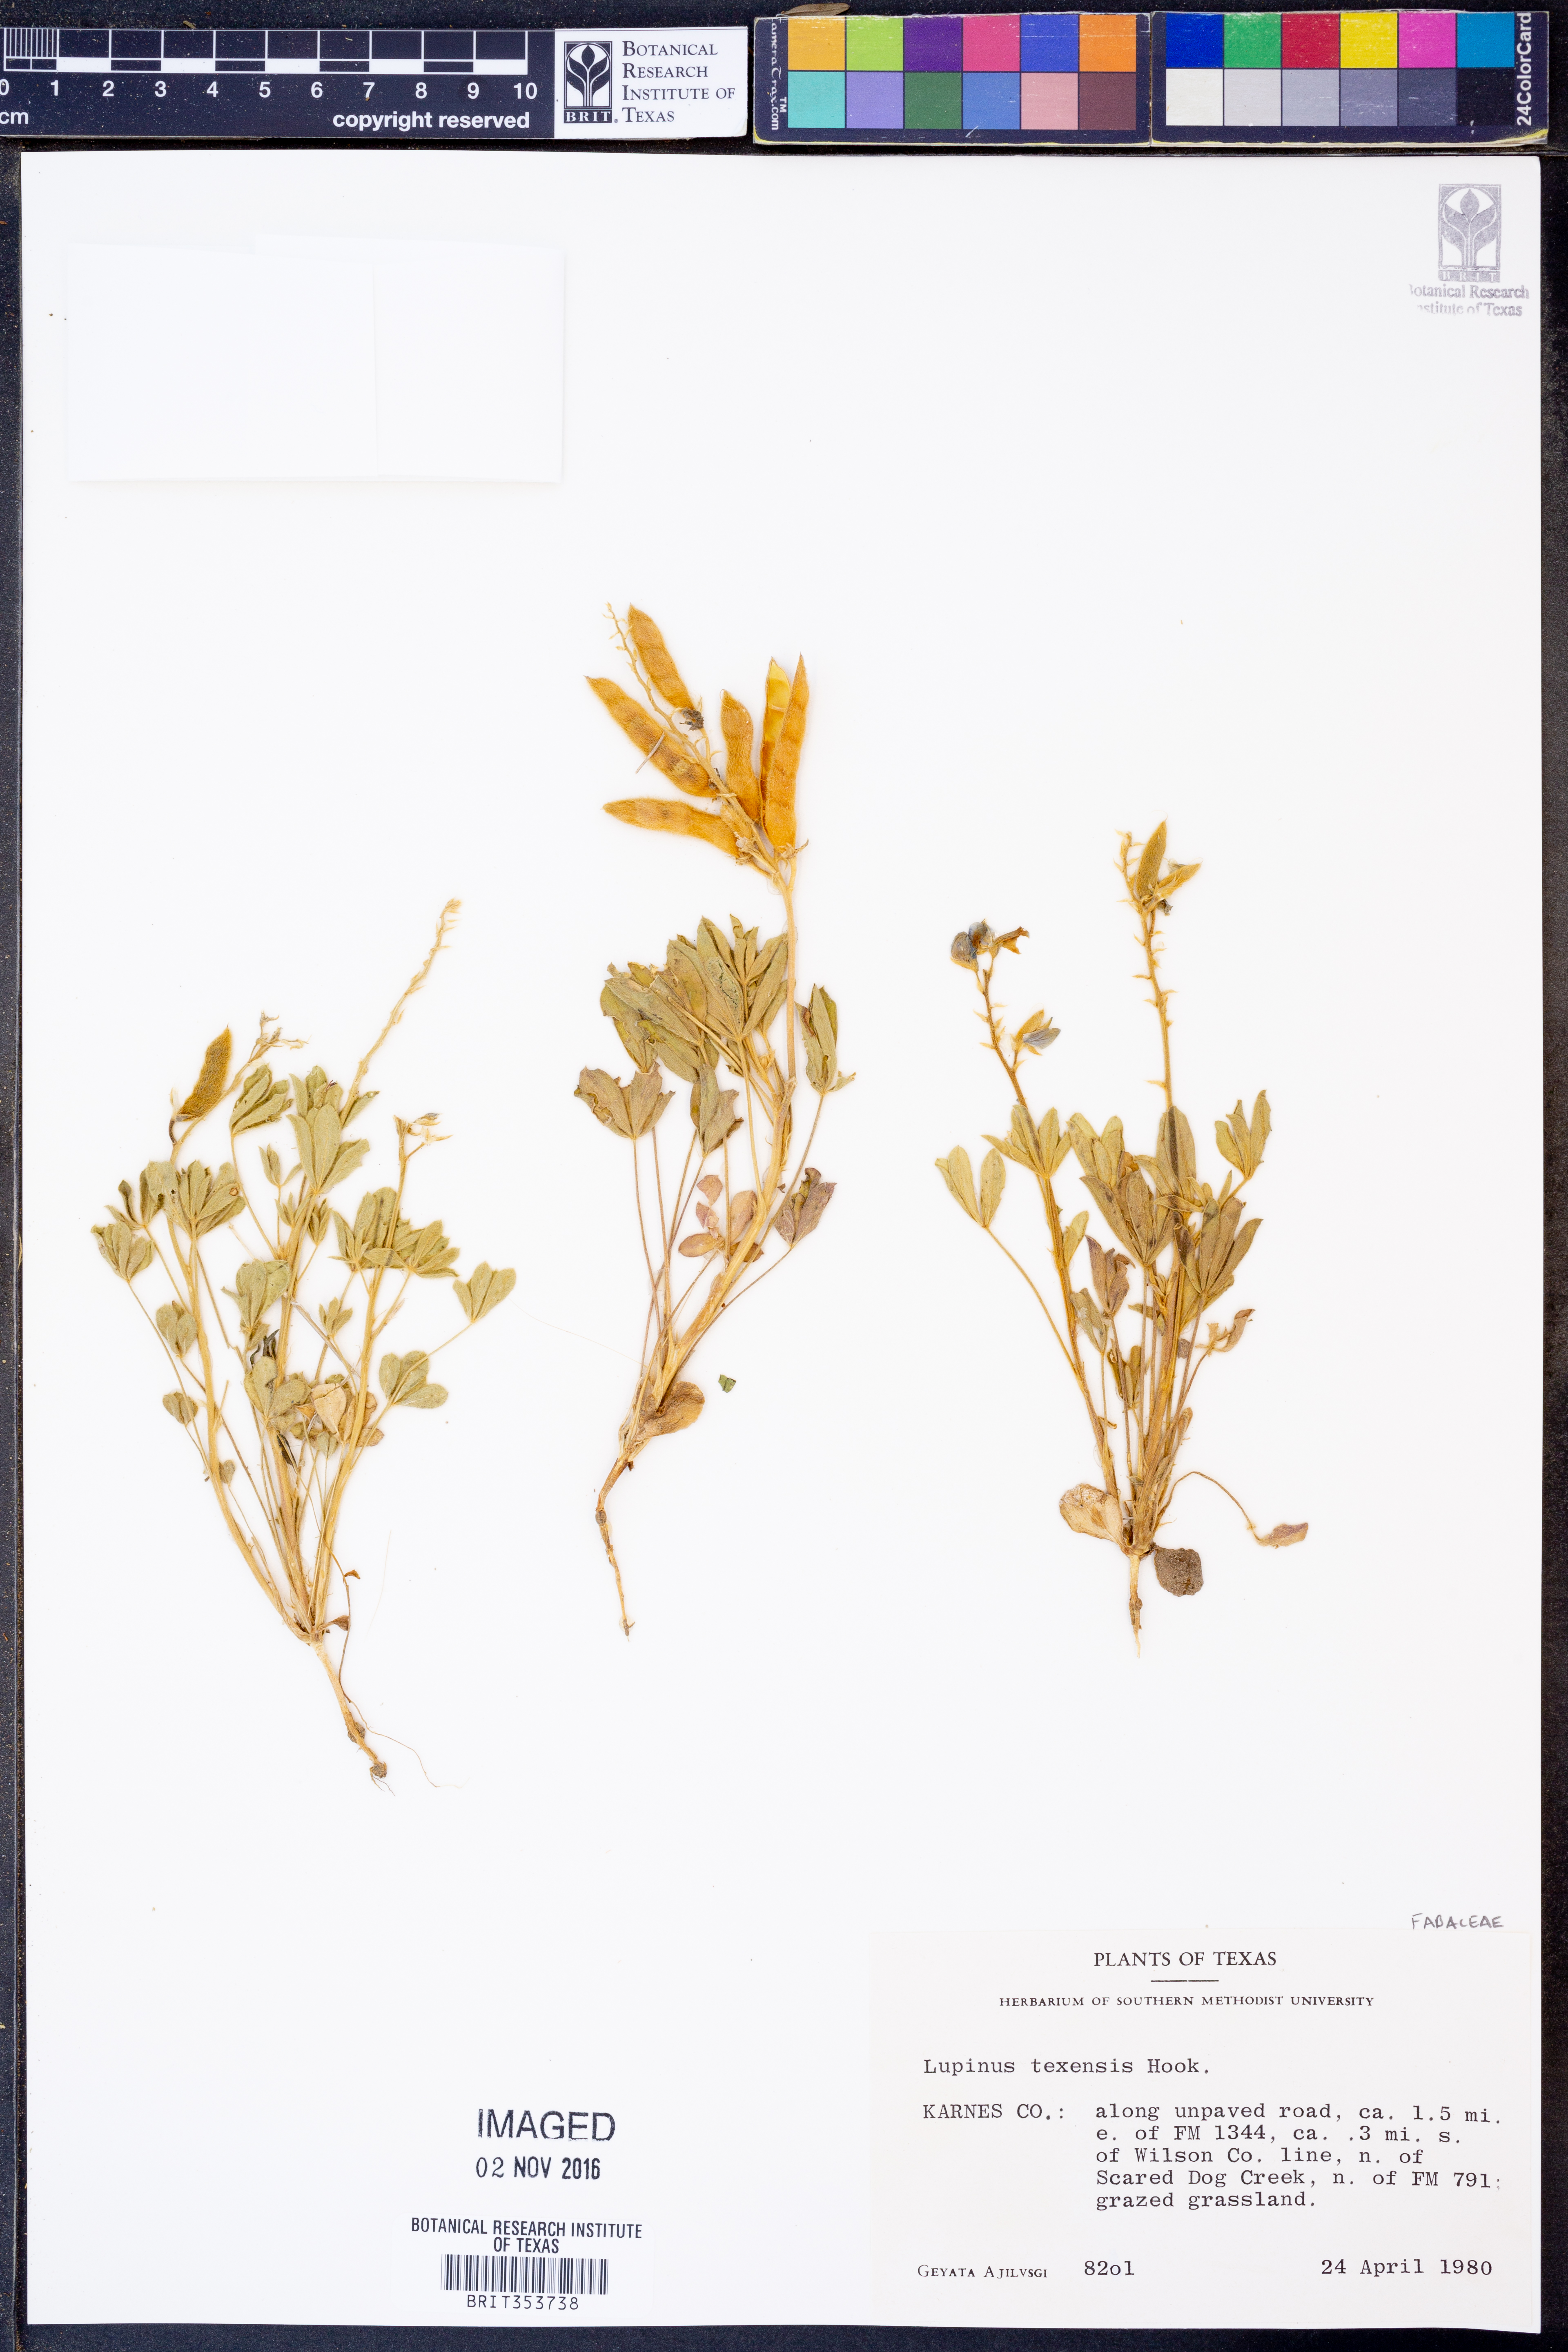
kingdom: Plantae
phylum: Tracheophyta
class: Magnoliopsida
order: Fabales
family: Fabaceae
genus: Lupinus
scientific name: Lupinus texensis
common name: Texas bluebonnet
